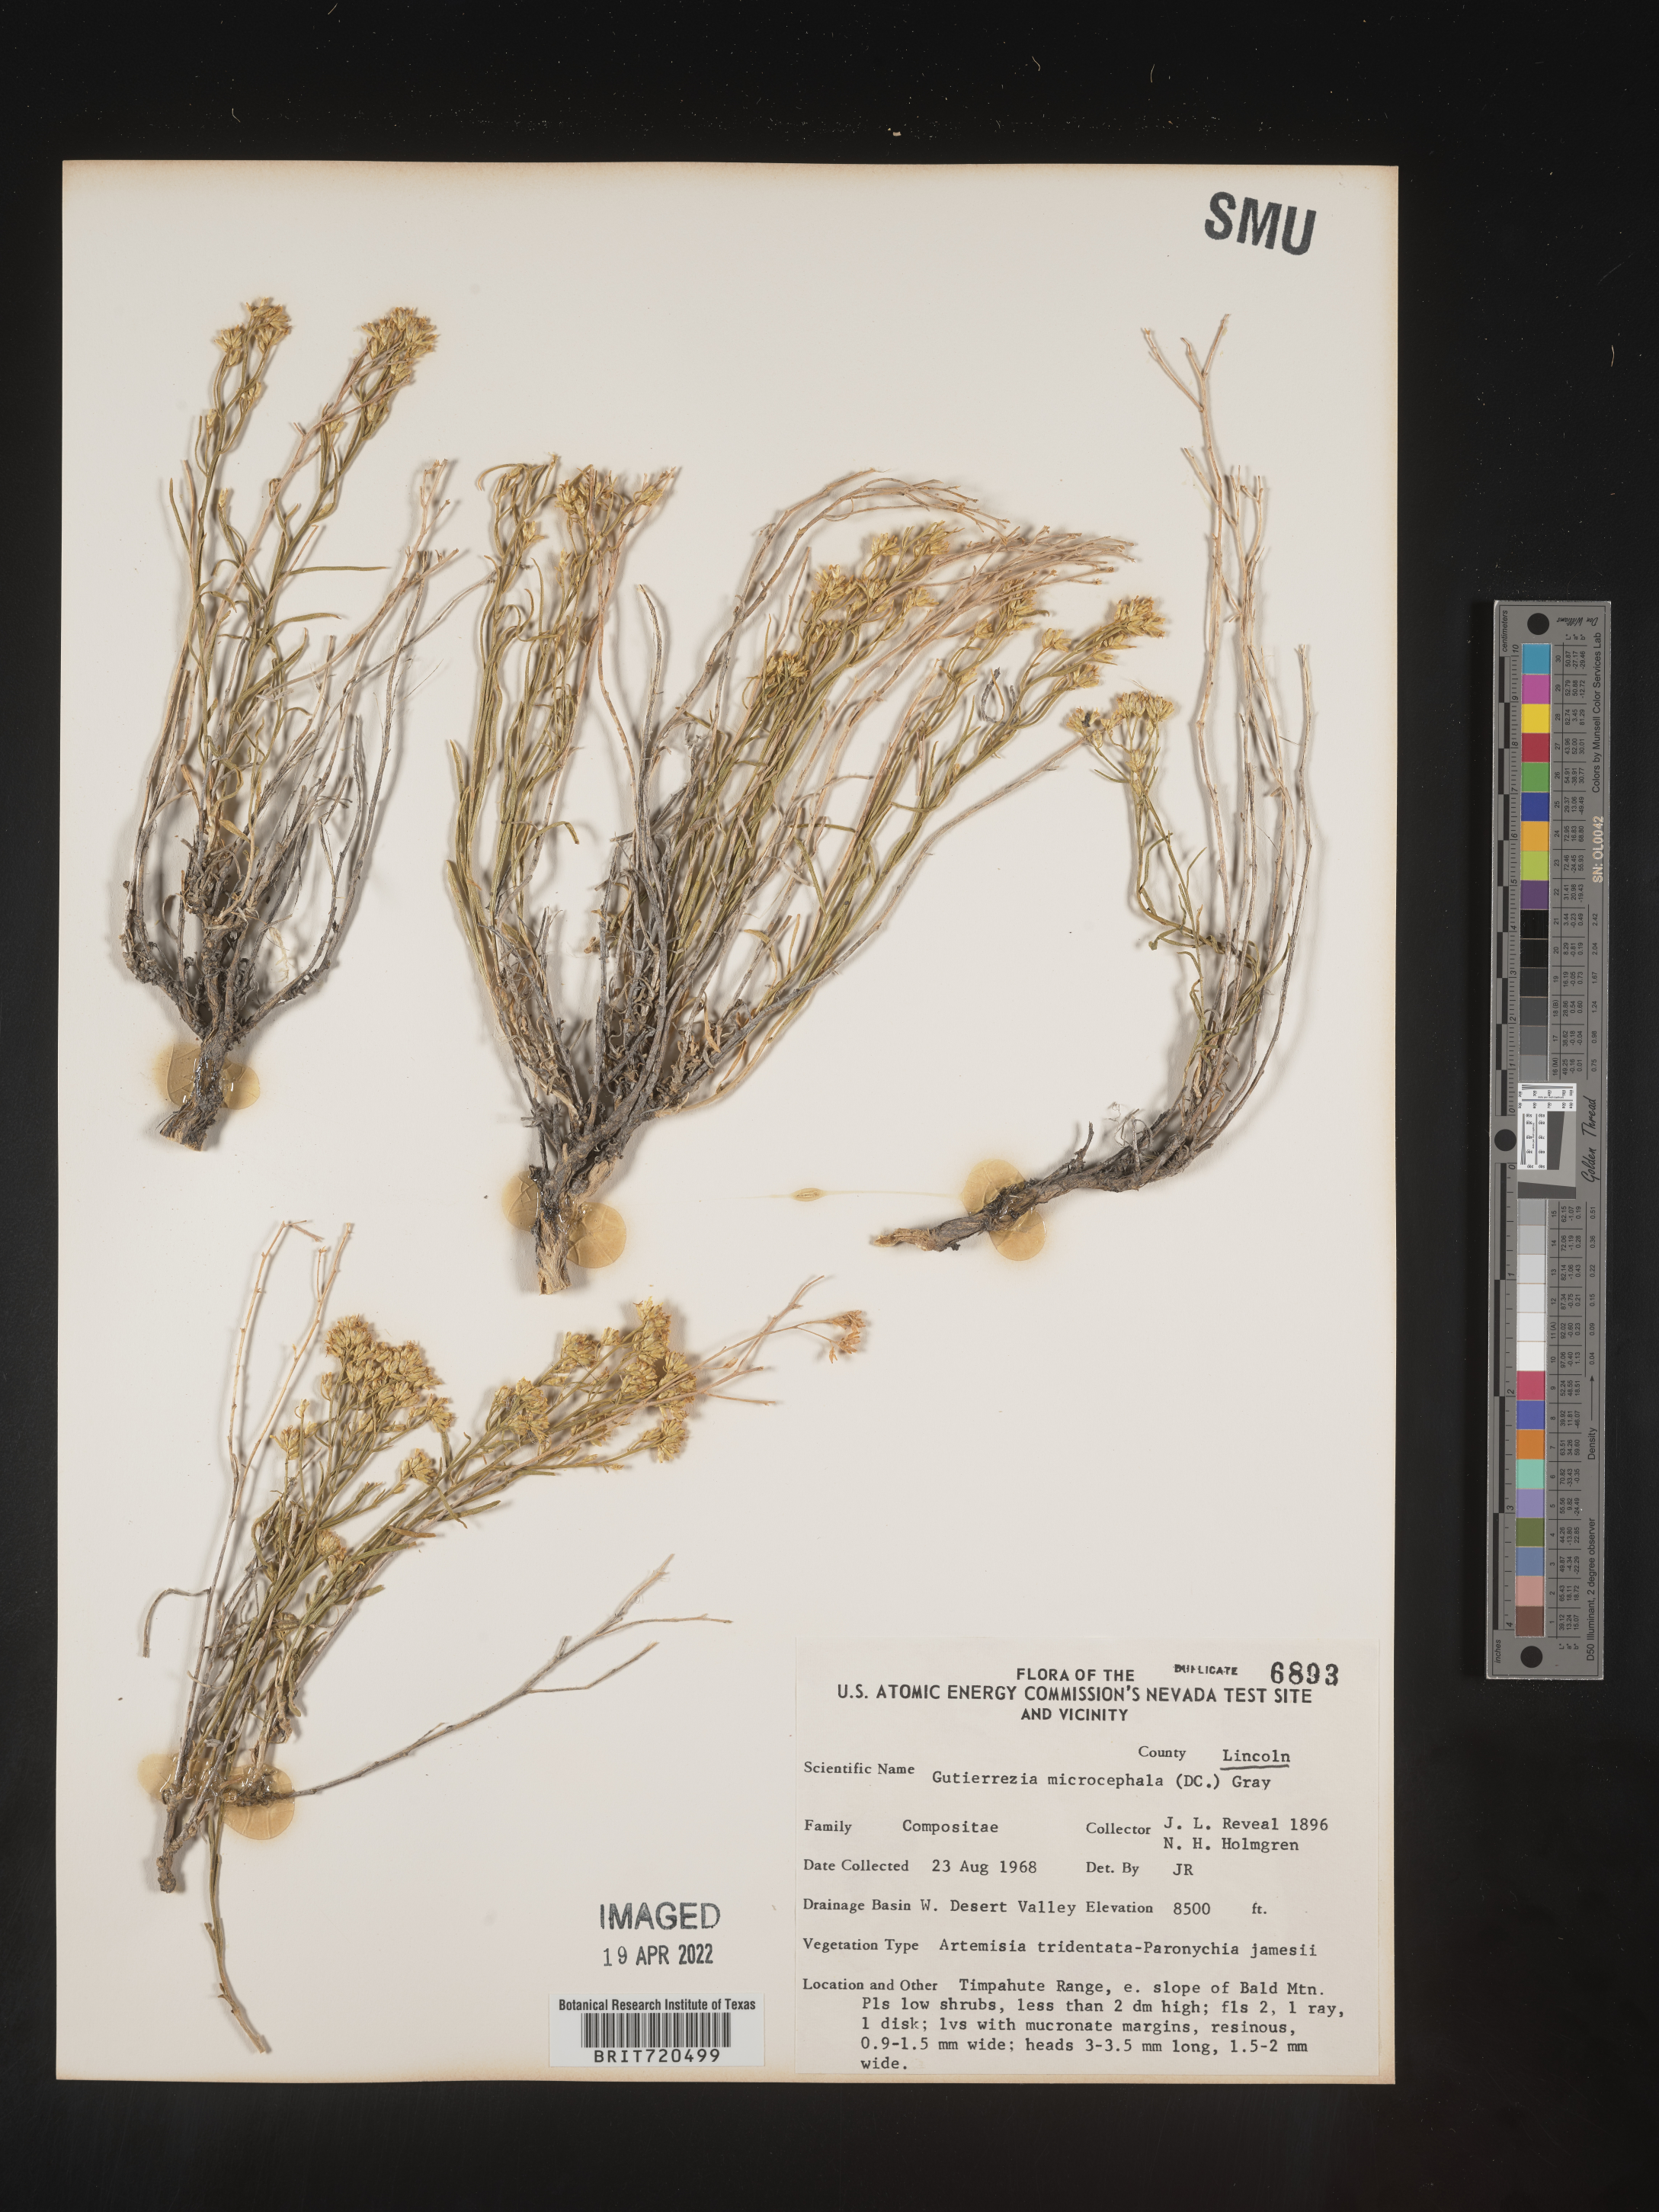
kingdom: Plantae
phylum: Tracheophyta
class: Magnoliopsida
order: Asterales
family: Asteraceae
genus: Gutierrezia
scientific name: Gutierrezia microcephala
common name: Thread snakeweed
